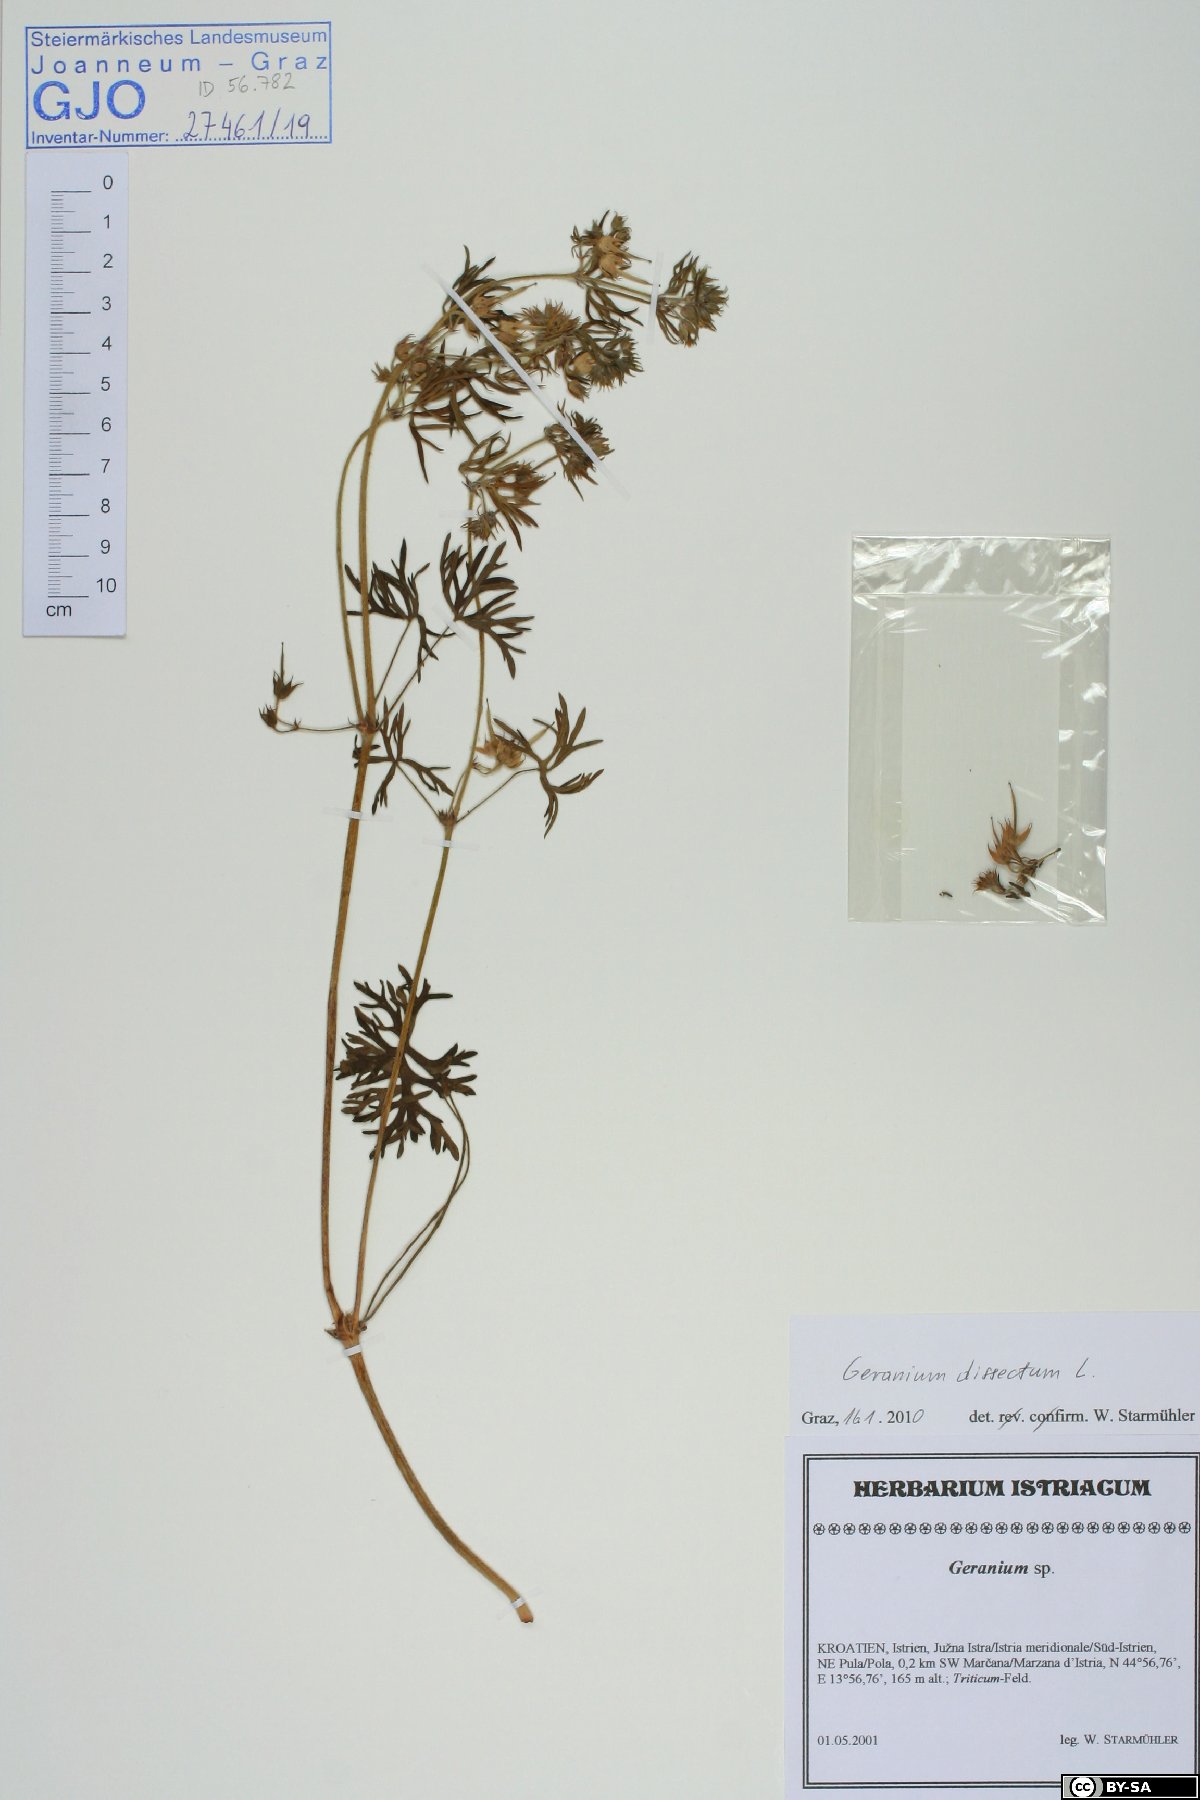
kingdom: Plantae
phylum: Tracheophyta
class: Magnoliopsida
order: Geraniales
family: Geraniaceae
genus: Geranium
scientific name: Geranium dissectum
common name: Cut-leaved crane's-bill
